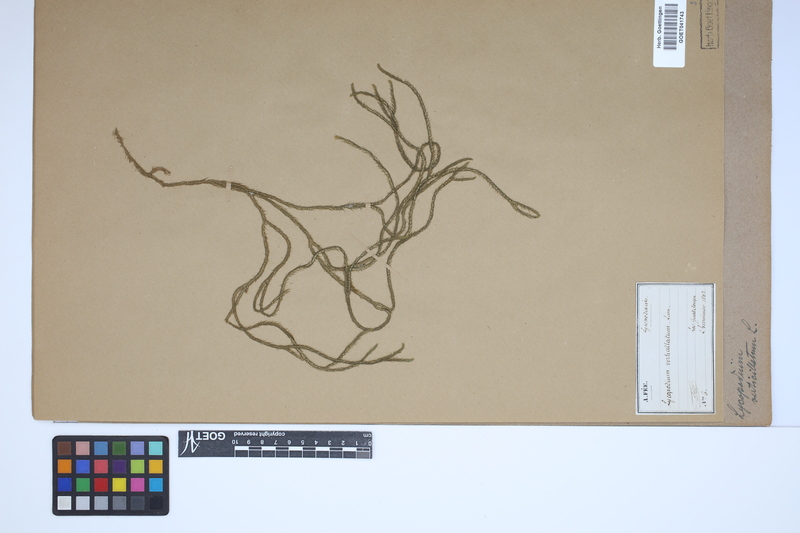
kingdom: Plantae
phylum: Tracheophyta
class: Lycopodiopsida
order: Lycopodiales
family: Lycopodiaceae
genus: Phlegmariurus
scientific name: Phlegmariurus verticillatus
